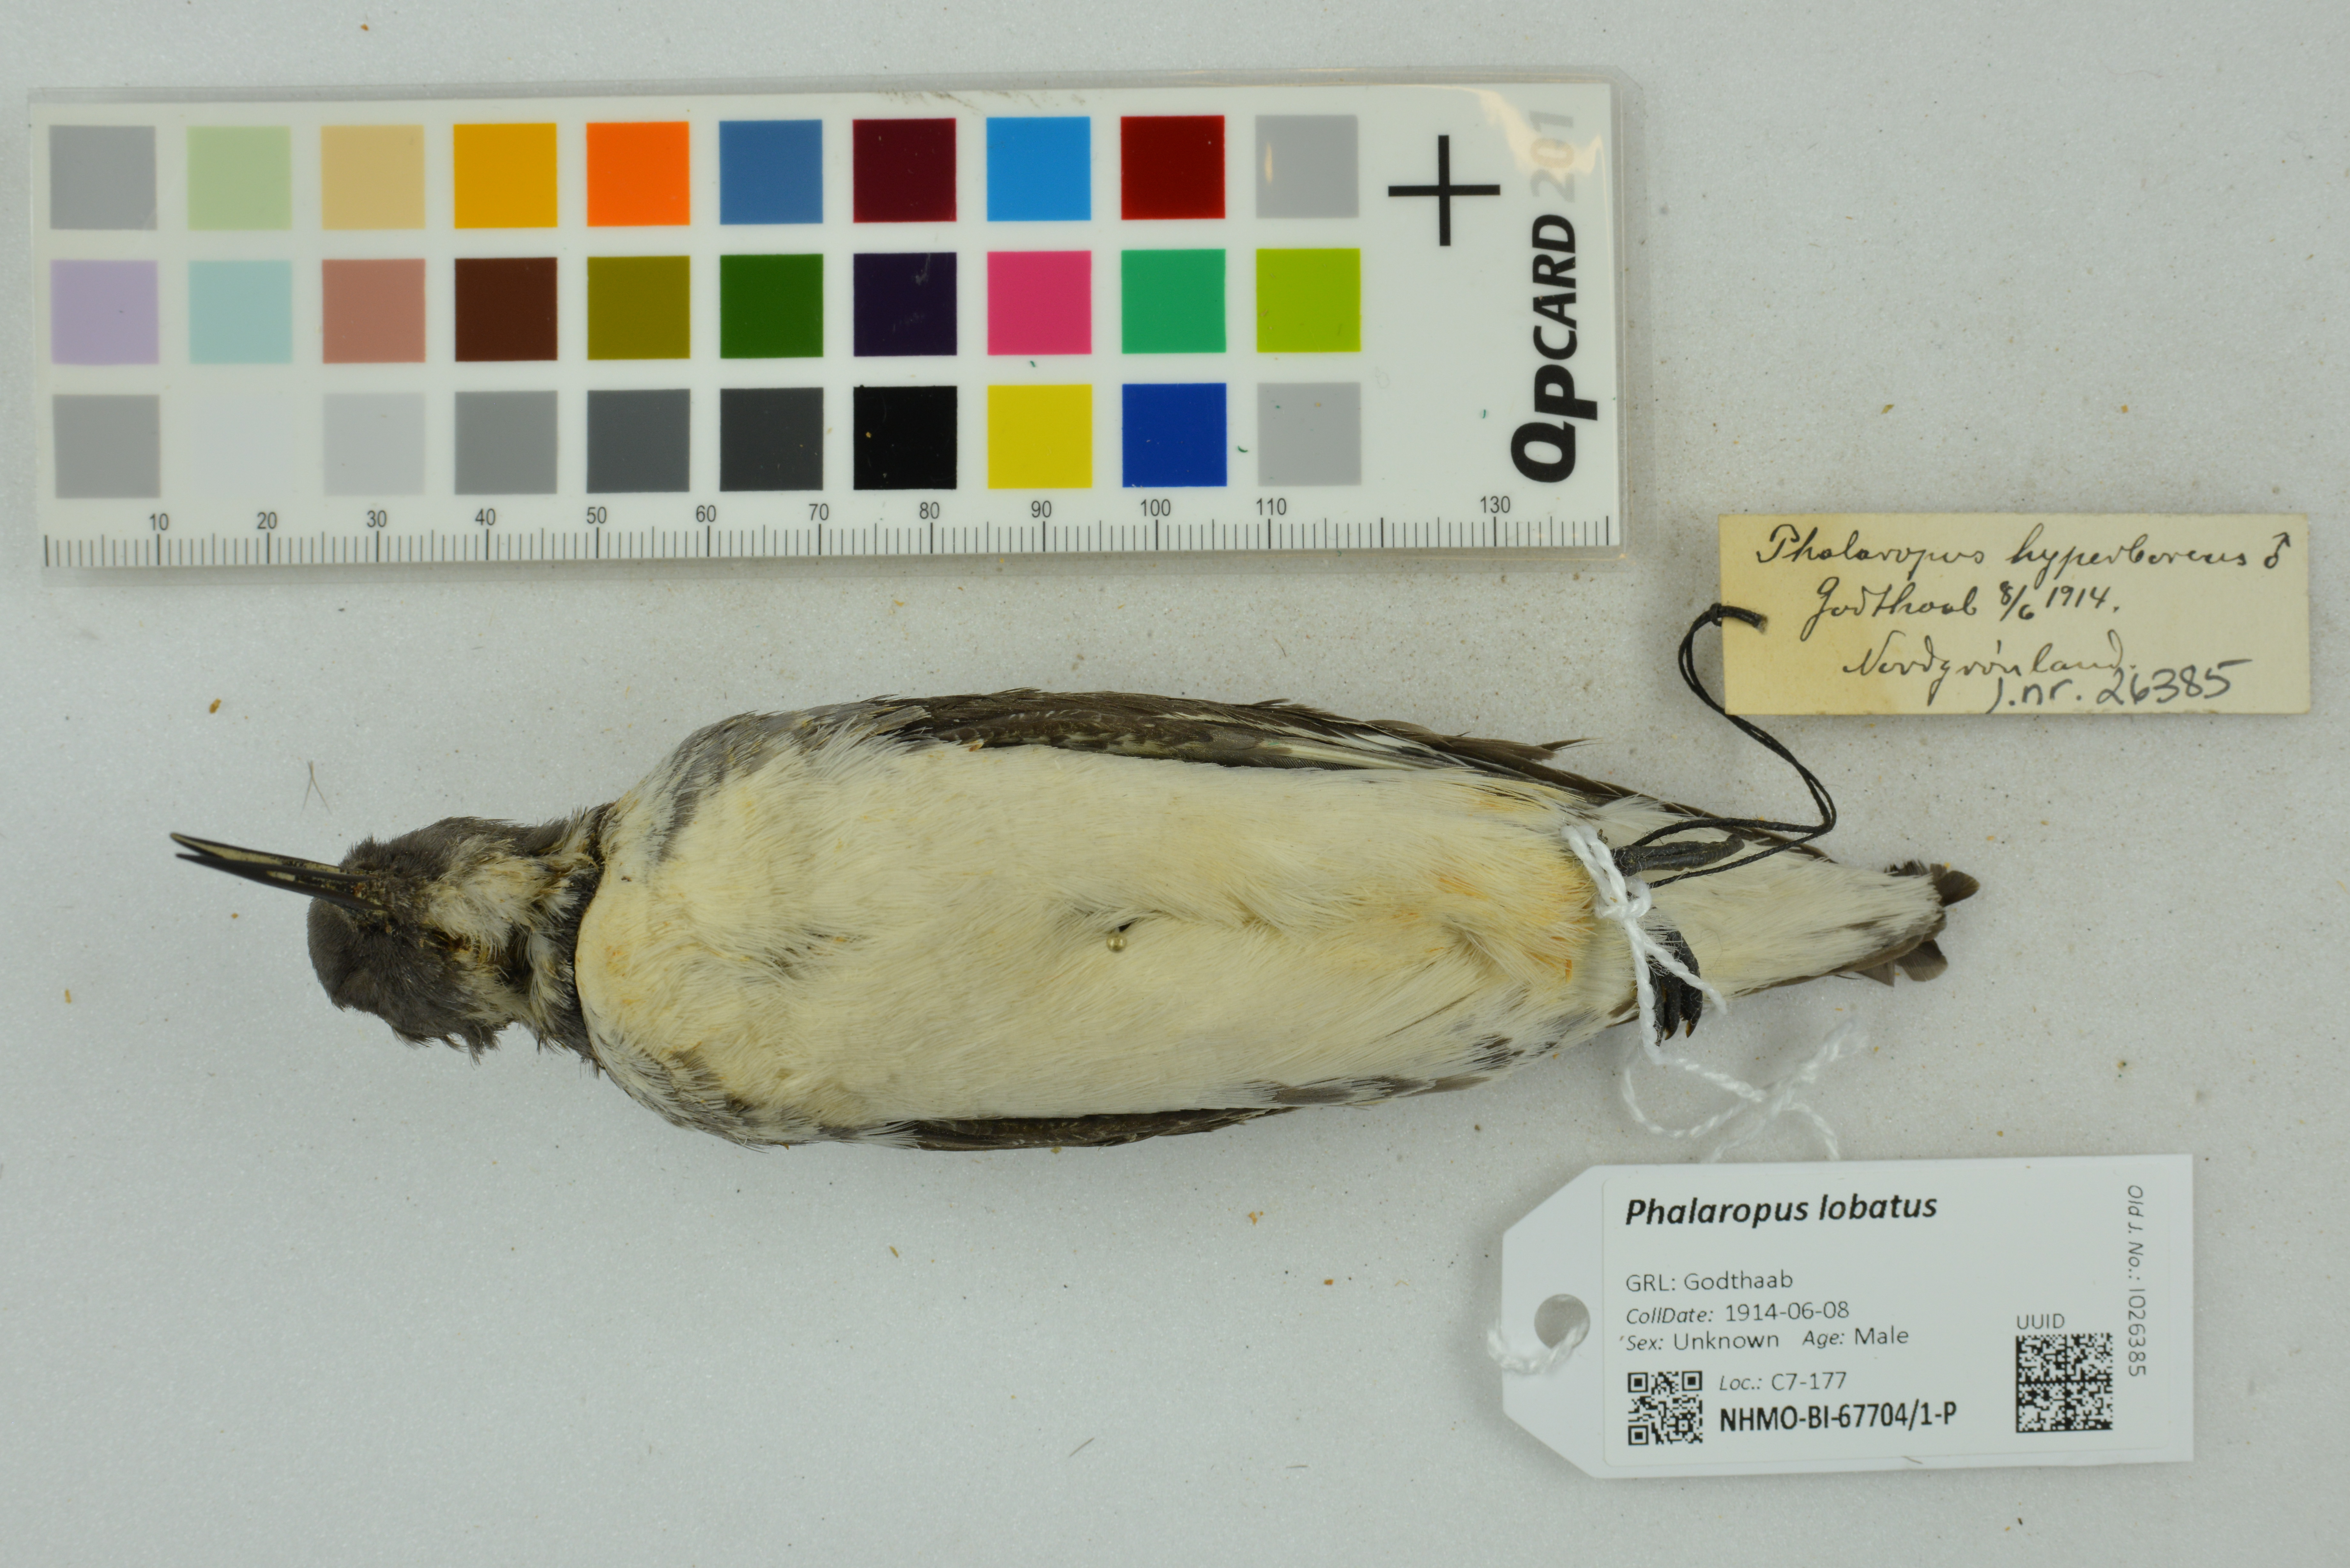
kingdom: Animalia
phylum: Chordata
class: Aves
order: Charadriiformes
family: Scolopacidae
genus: Phalaropus
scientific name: Phalaropus lobatus
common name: Red-necked phalarope
